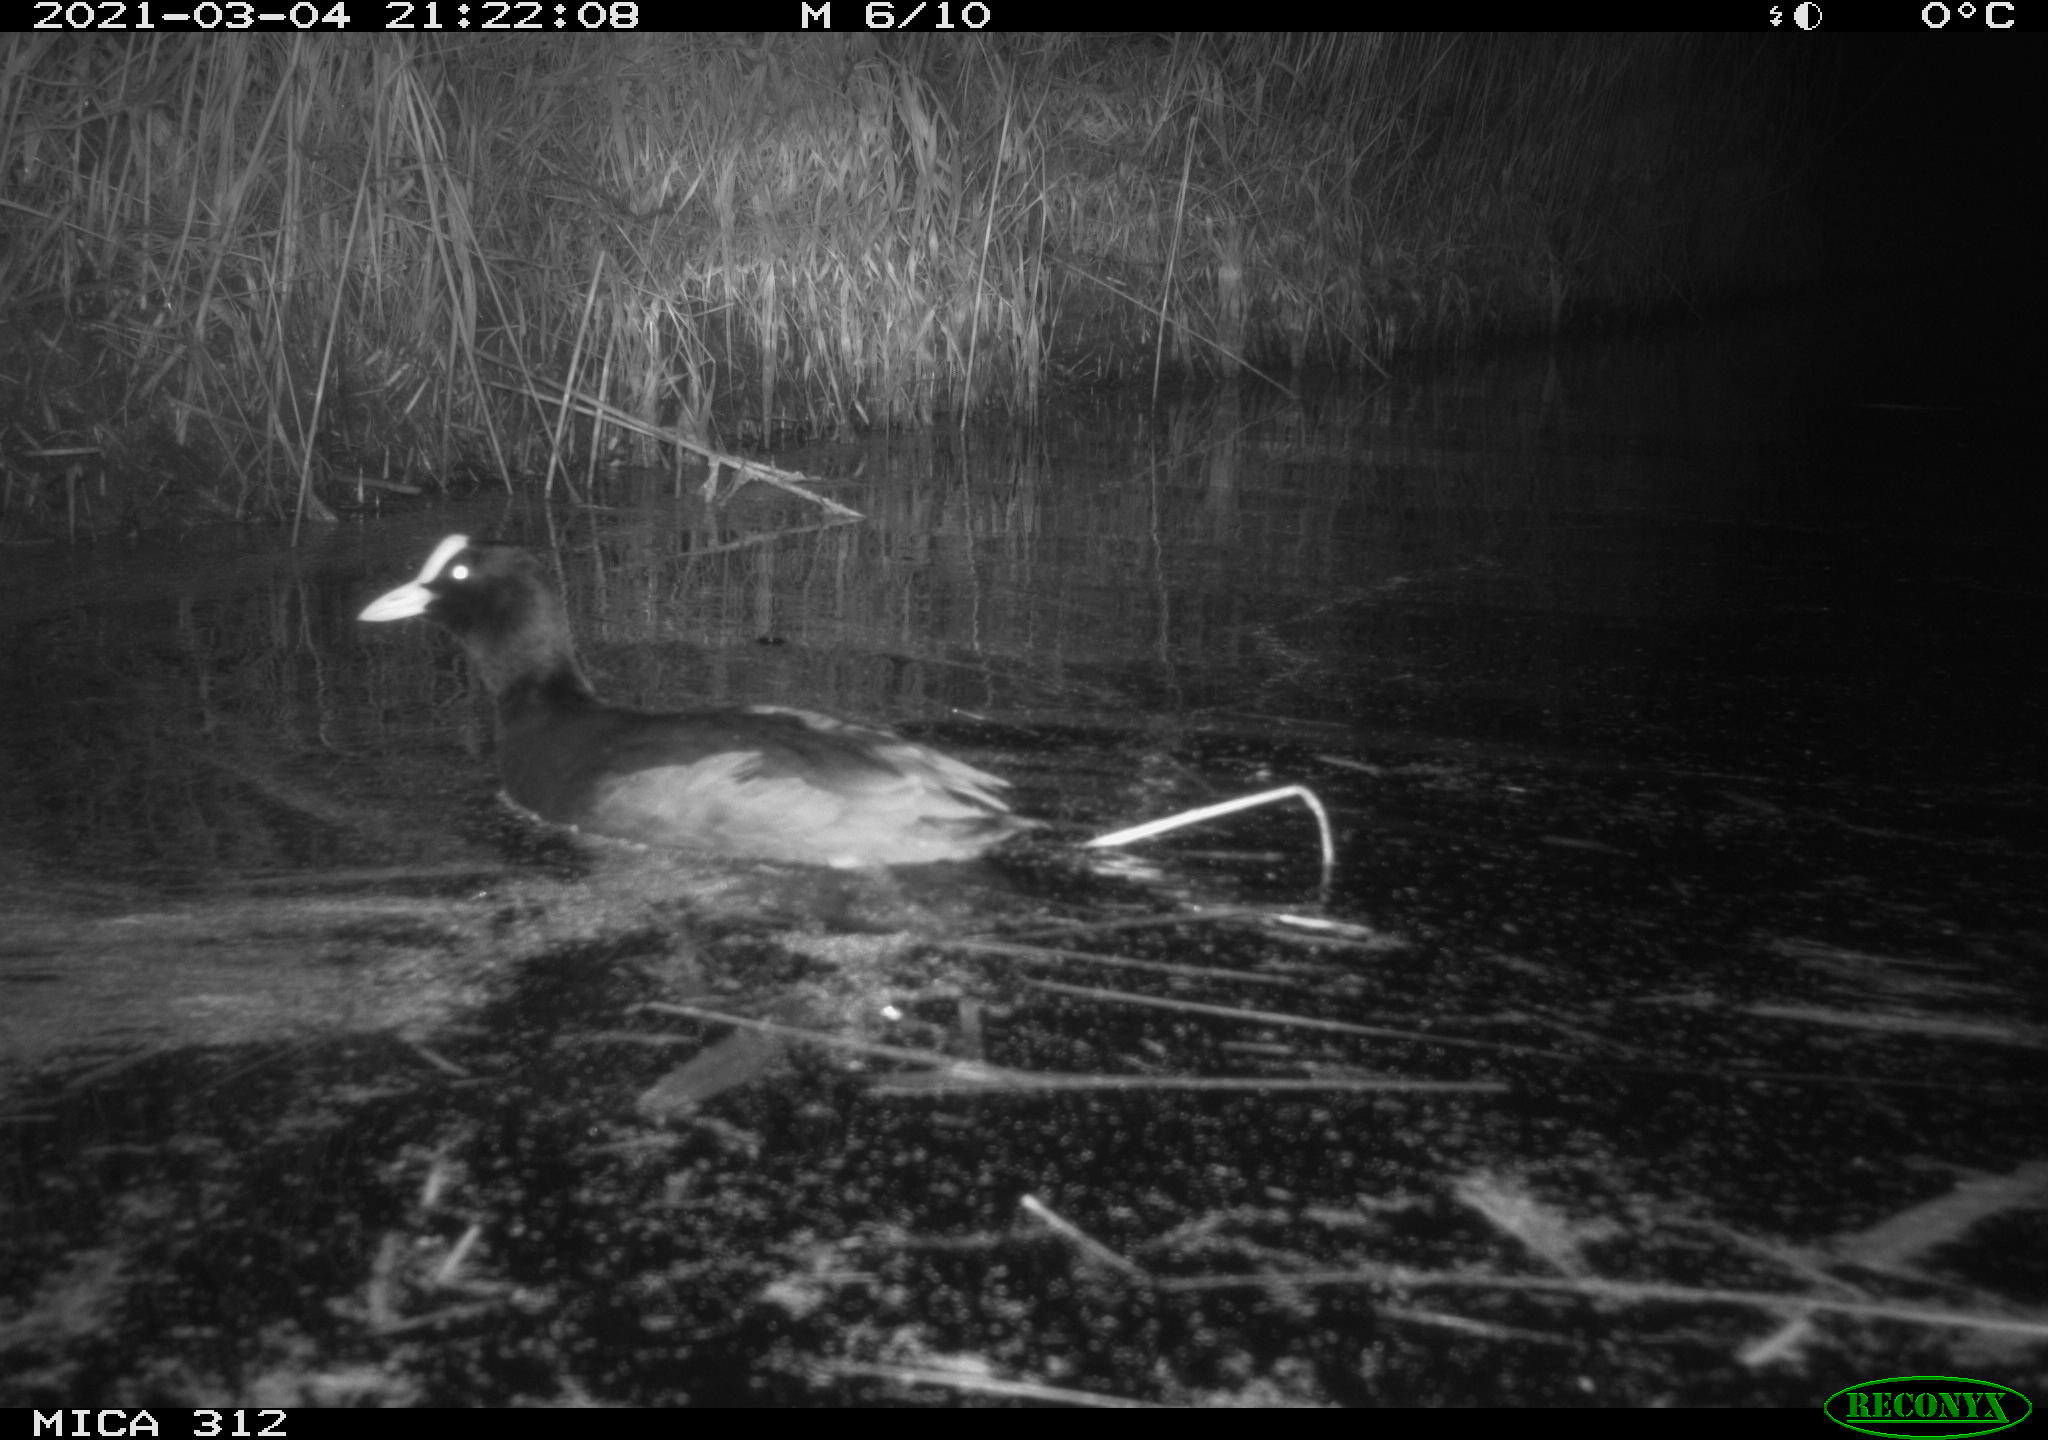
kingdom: Animalia
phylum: Chordata
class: Aves
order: Gruiformes
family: Rallidae
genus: Fulica
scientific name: Fulica atra
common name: Eurasian coot
